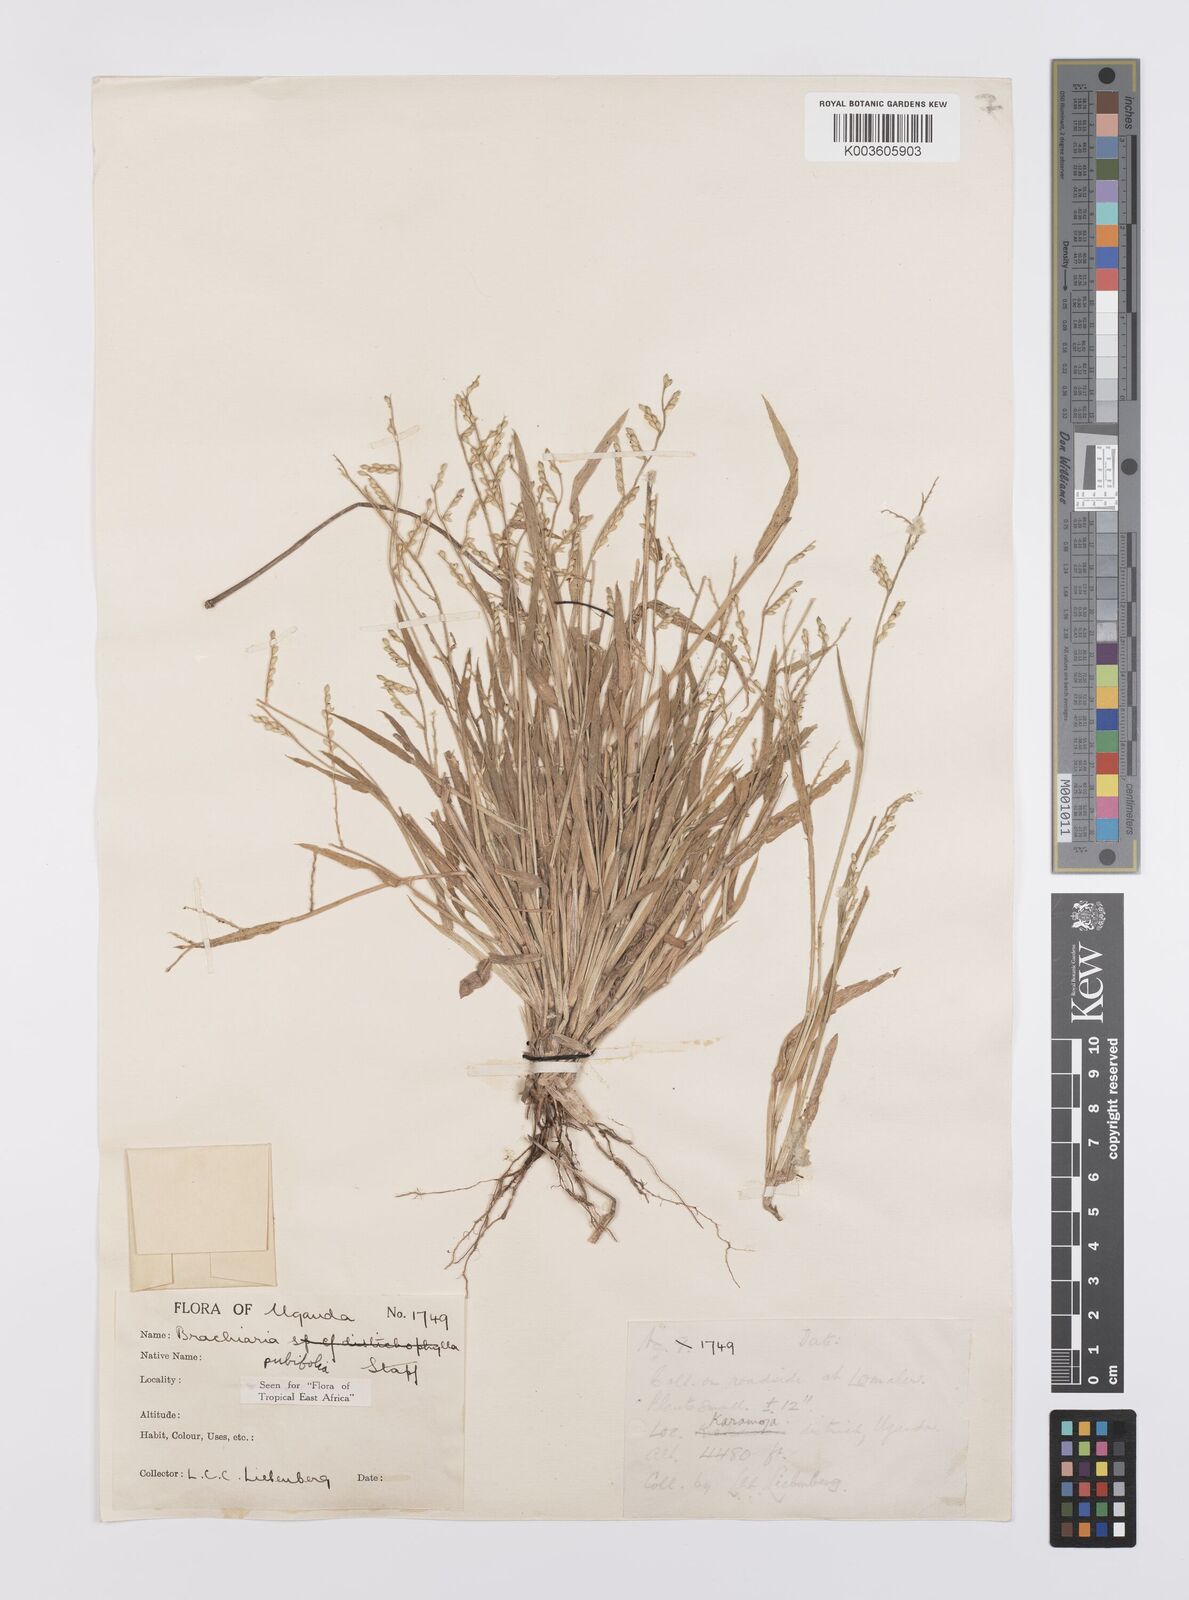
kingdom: Plantae
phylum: Tracheophyta
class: Liliopsida
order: Poales
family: Poaceae
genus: Urochloa
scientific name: Urochloa xantholeuca
